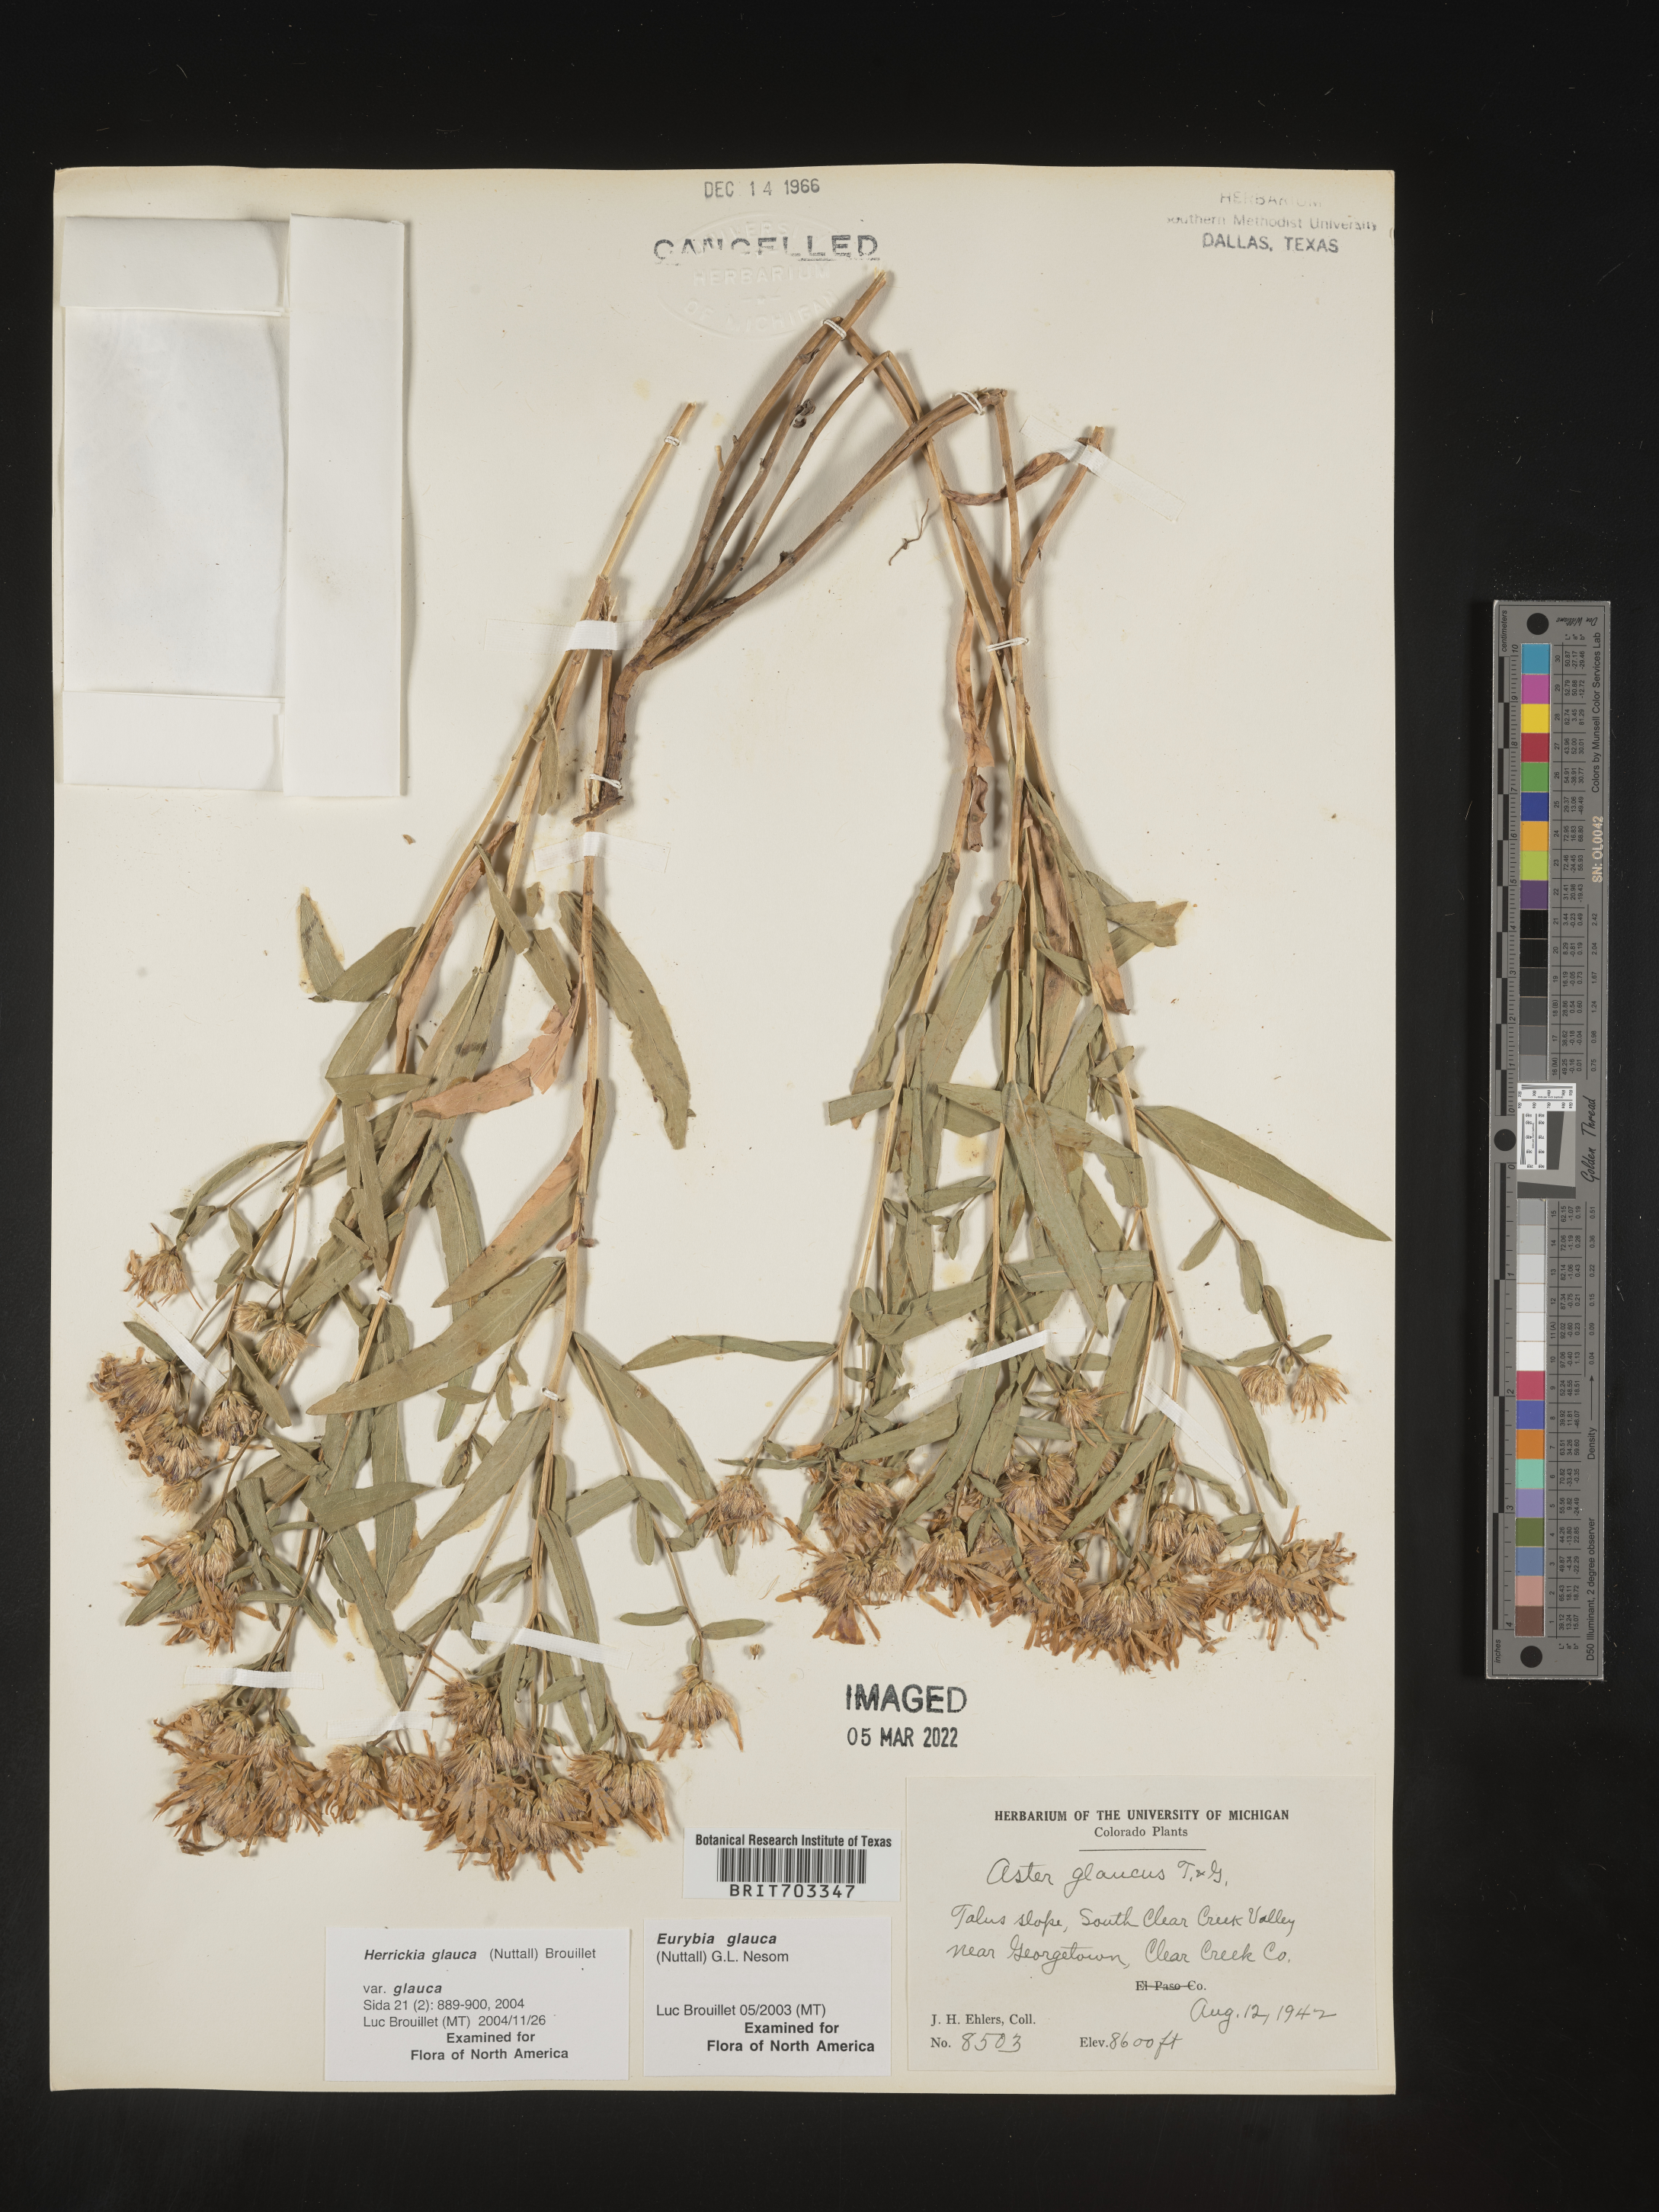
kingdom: Plantae
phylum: Tracheophyta
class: Magnoliopsida
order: Asterales
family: Asteraceae
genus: Eurybia
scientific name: Eurybia glauca
